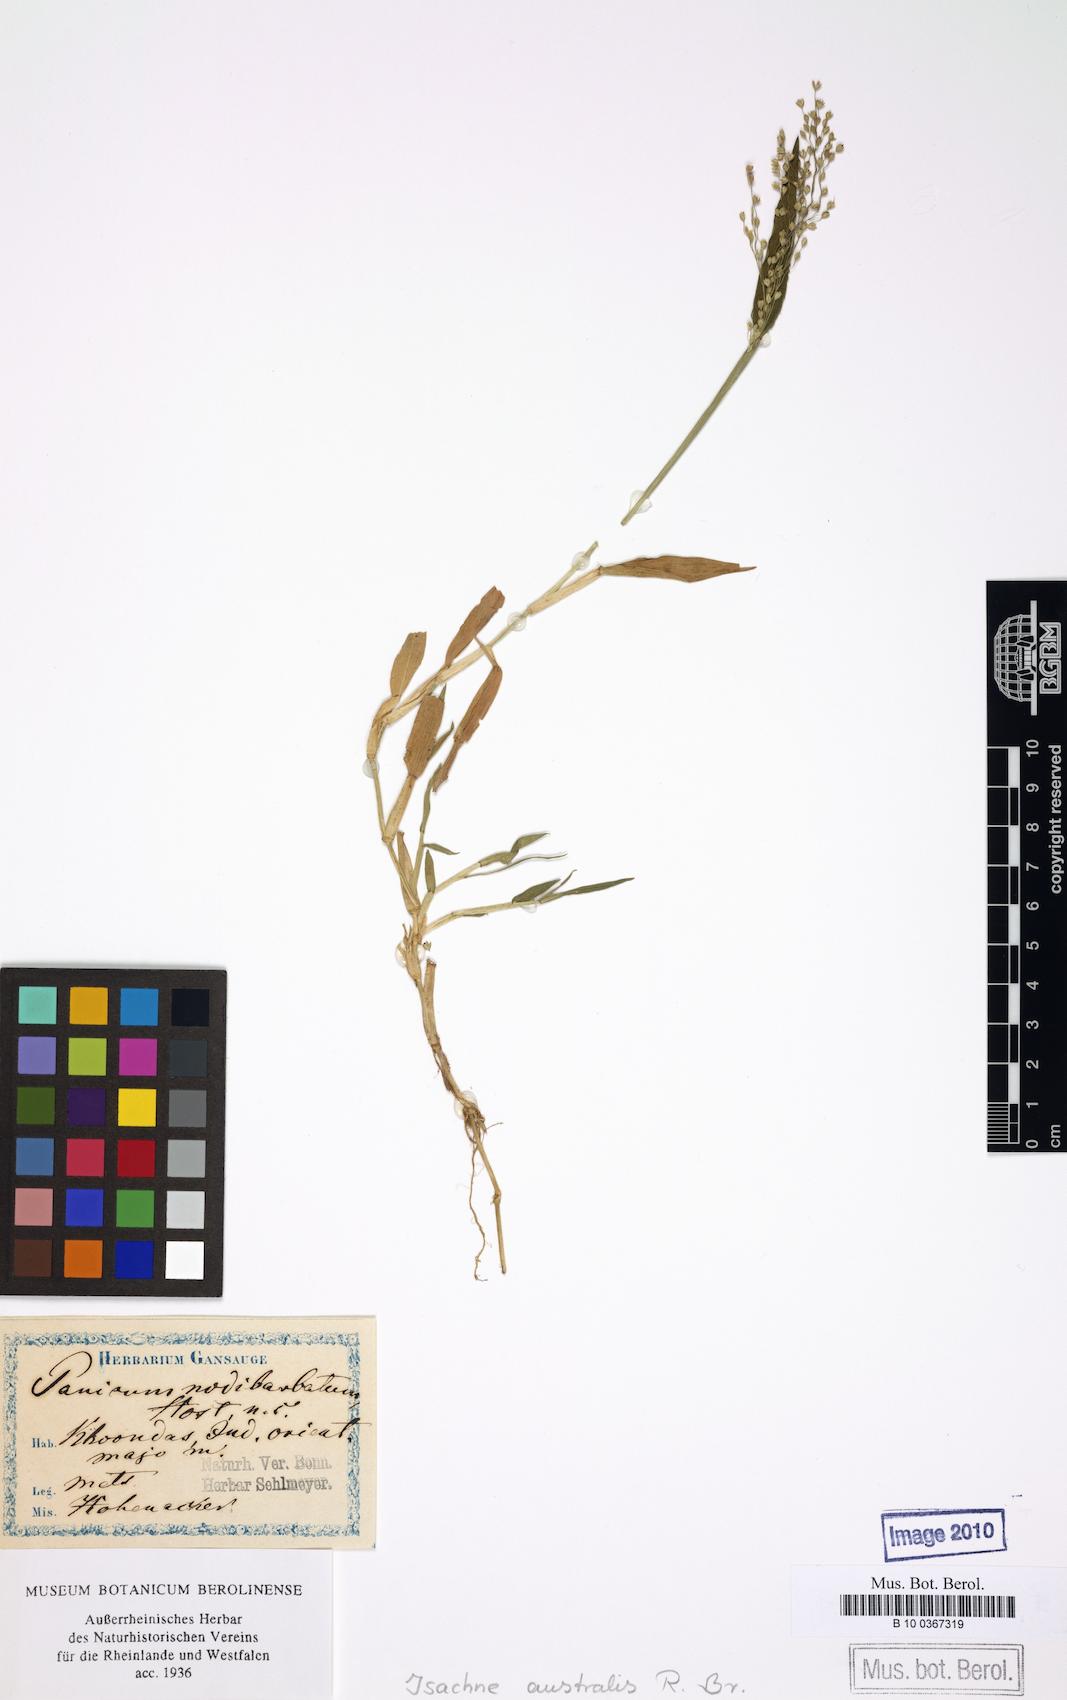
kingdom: Plantae
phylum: Tracheophyta
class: Liliopsida
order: Poales
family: Poaceae
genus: Isachne
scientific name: Isachne globosa
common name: Swamp millet
